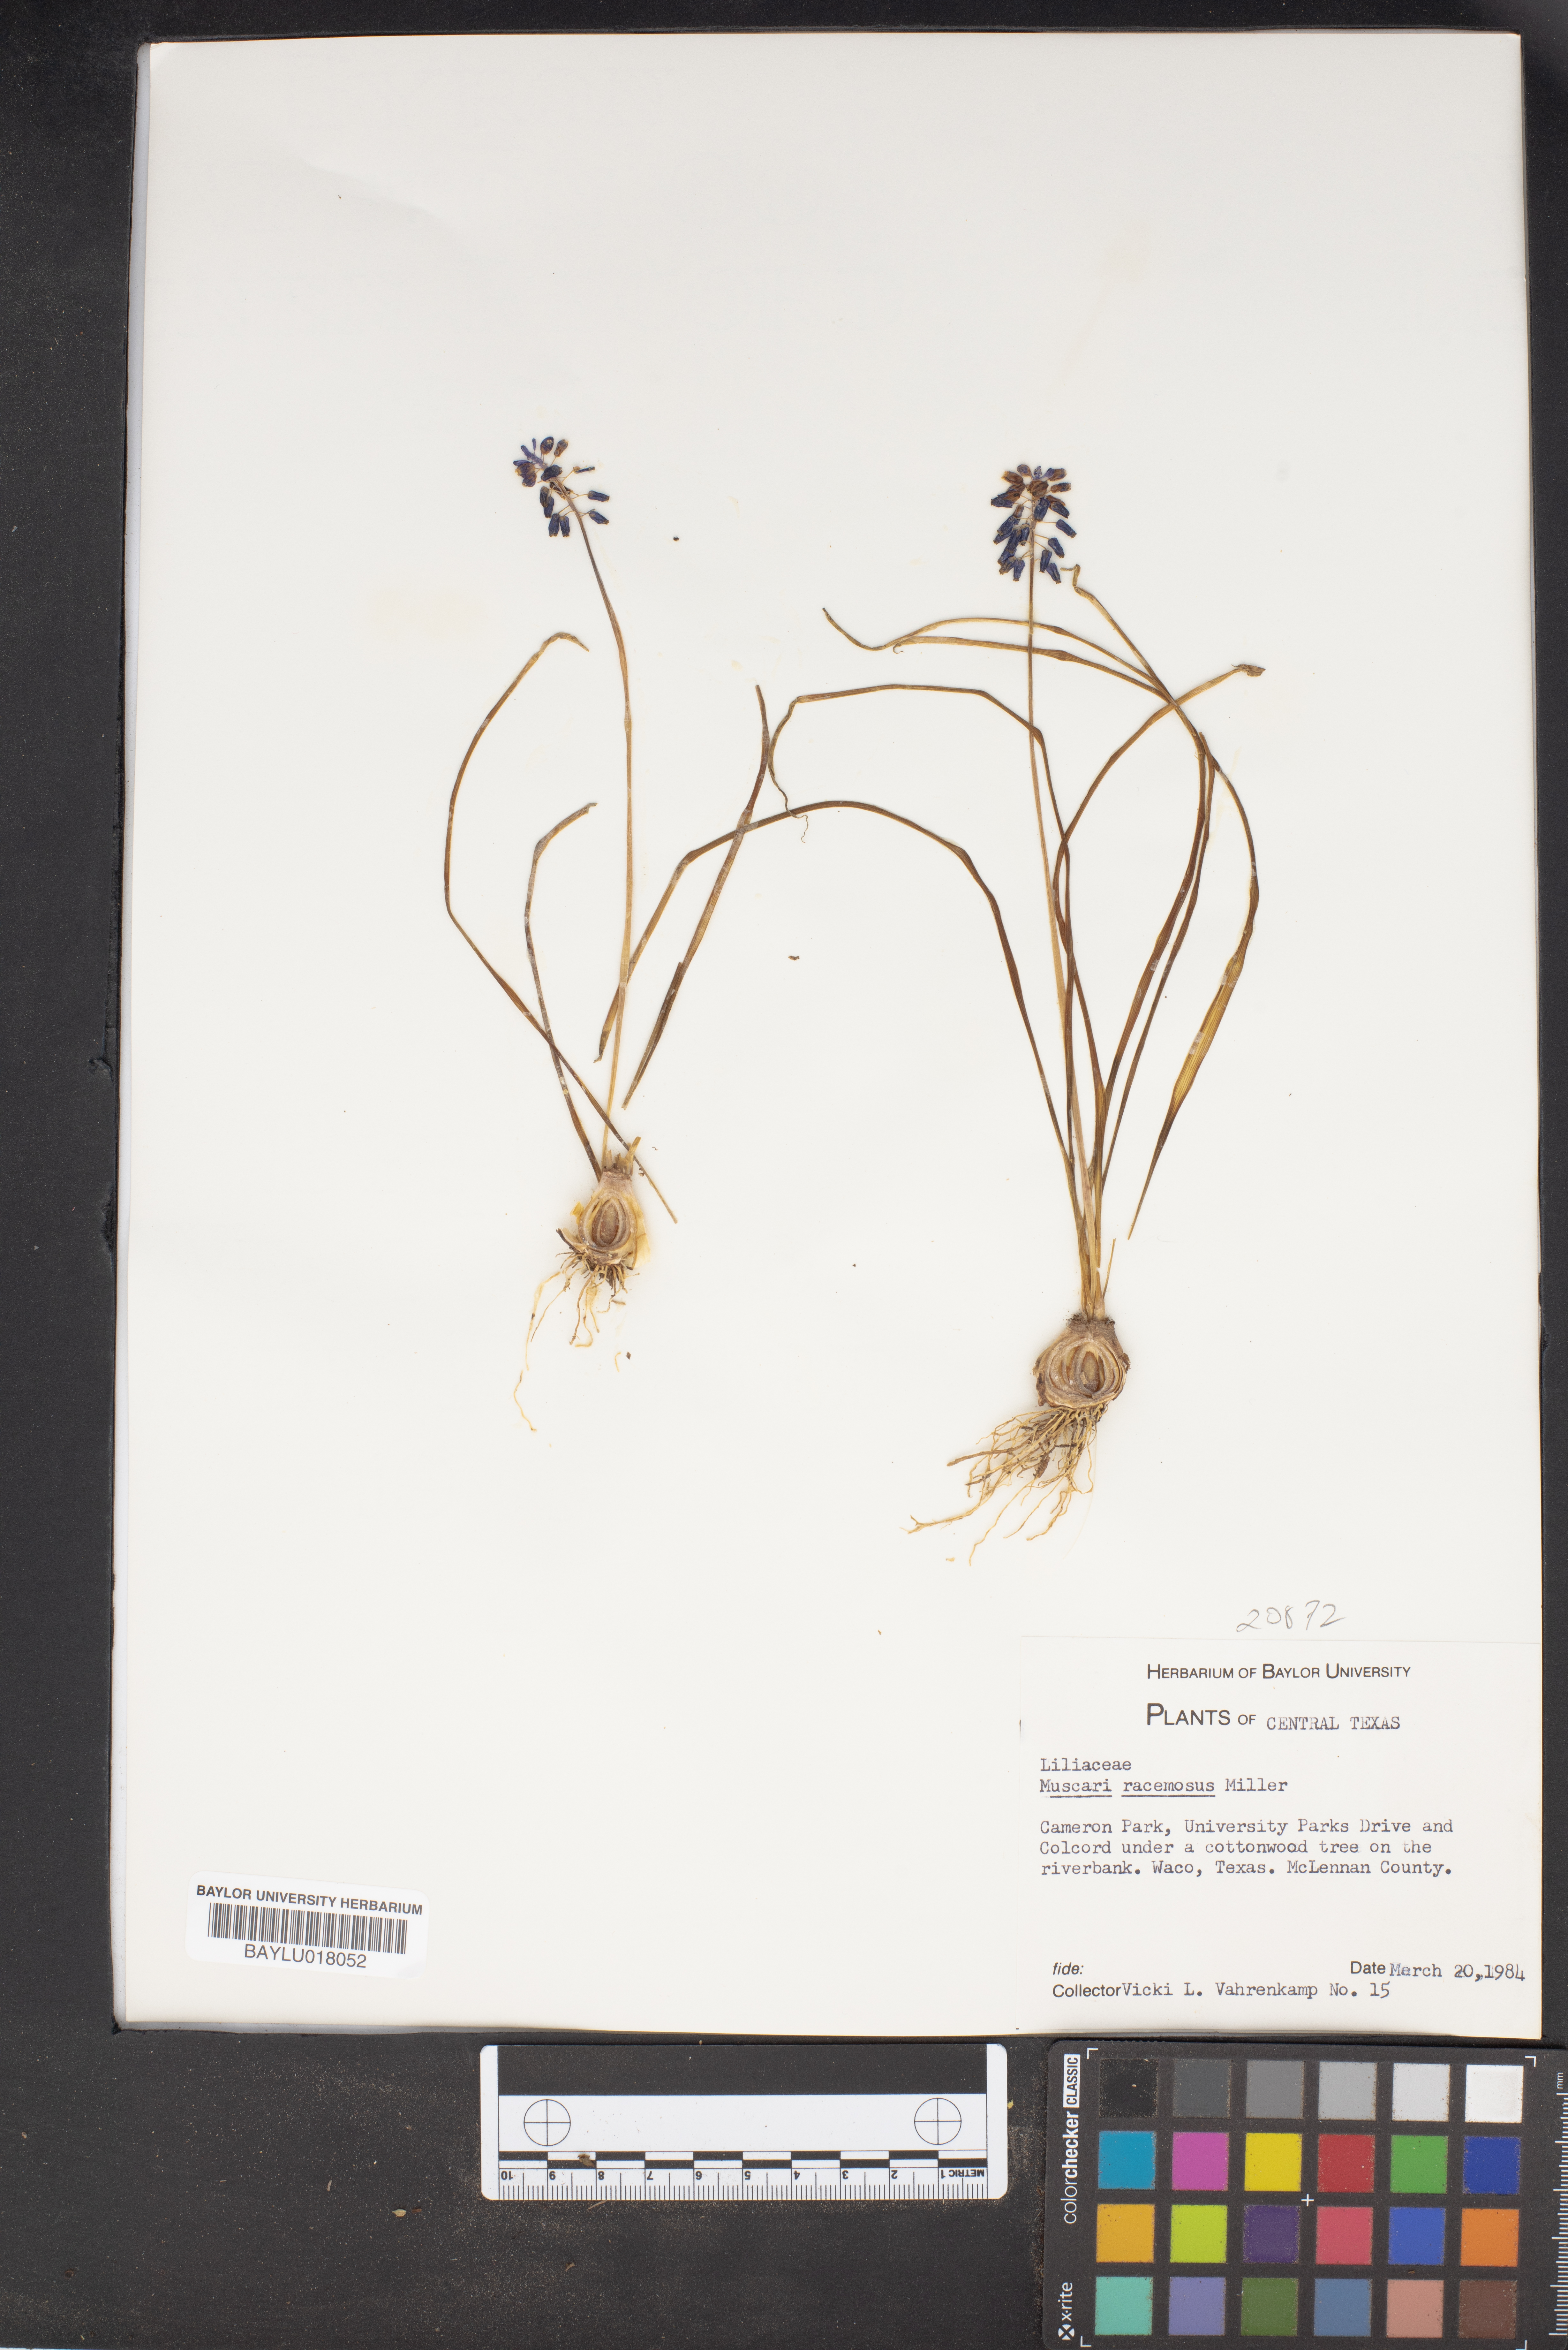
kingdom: Plantae
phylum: Tracheophyta
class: Liliopsida
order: Asparagales
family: Asparagaceae
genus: Muscarimia
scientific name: Muscarimia muscari
